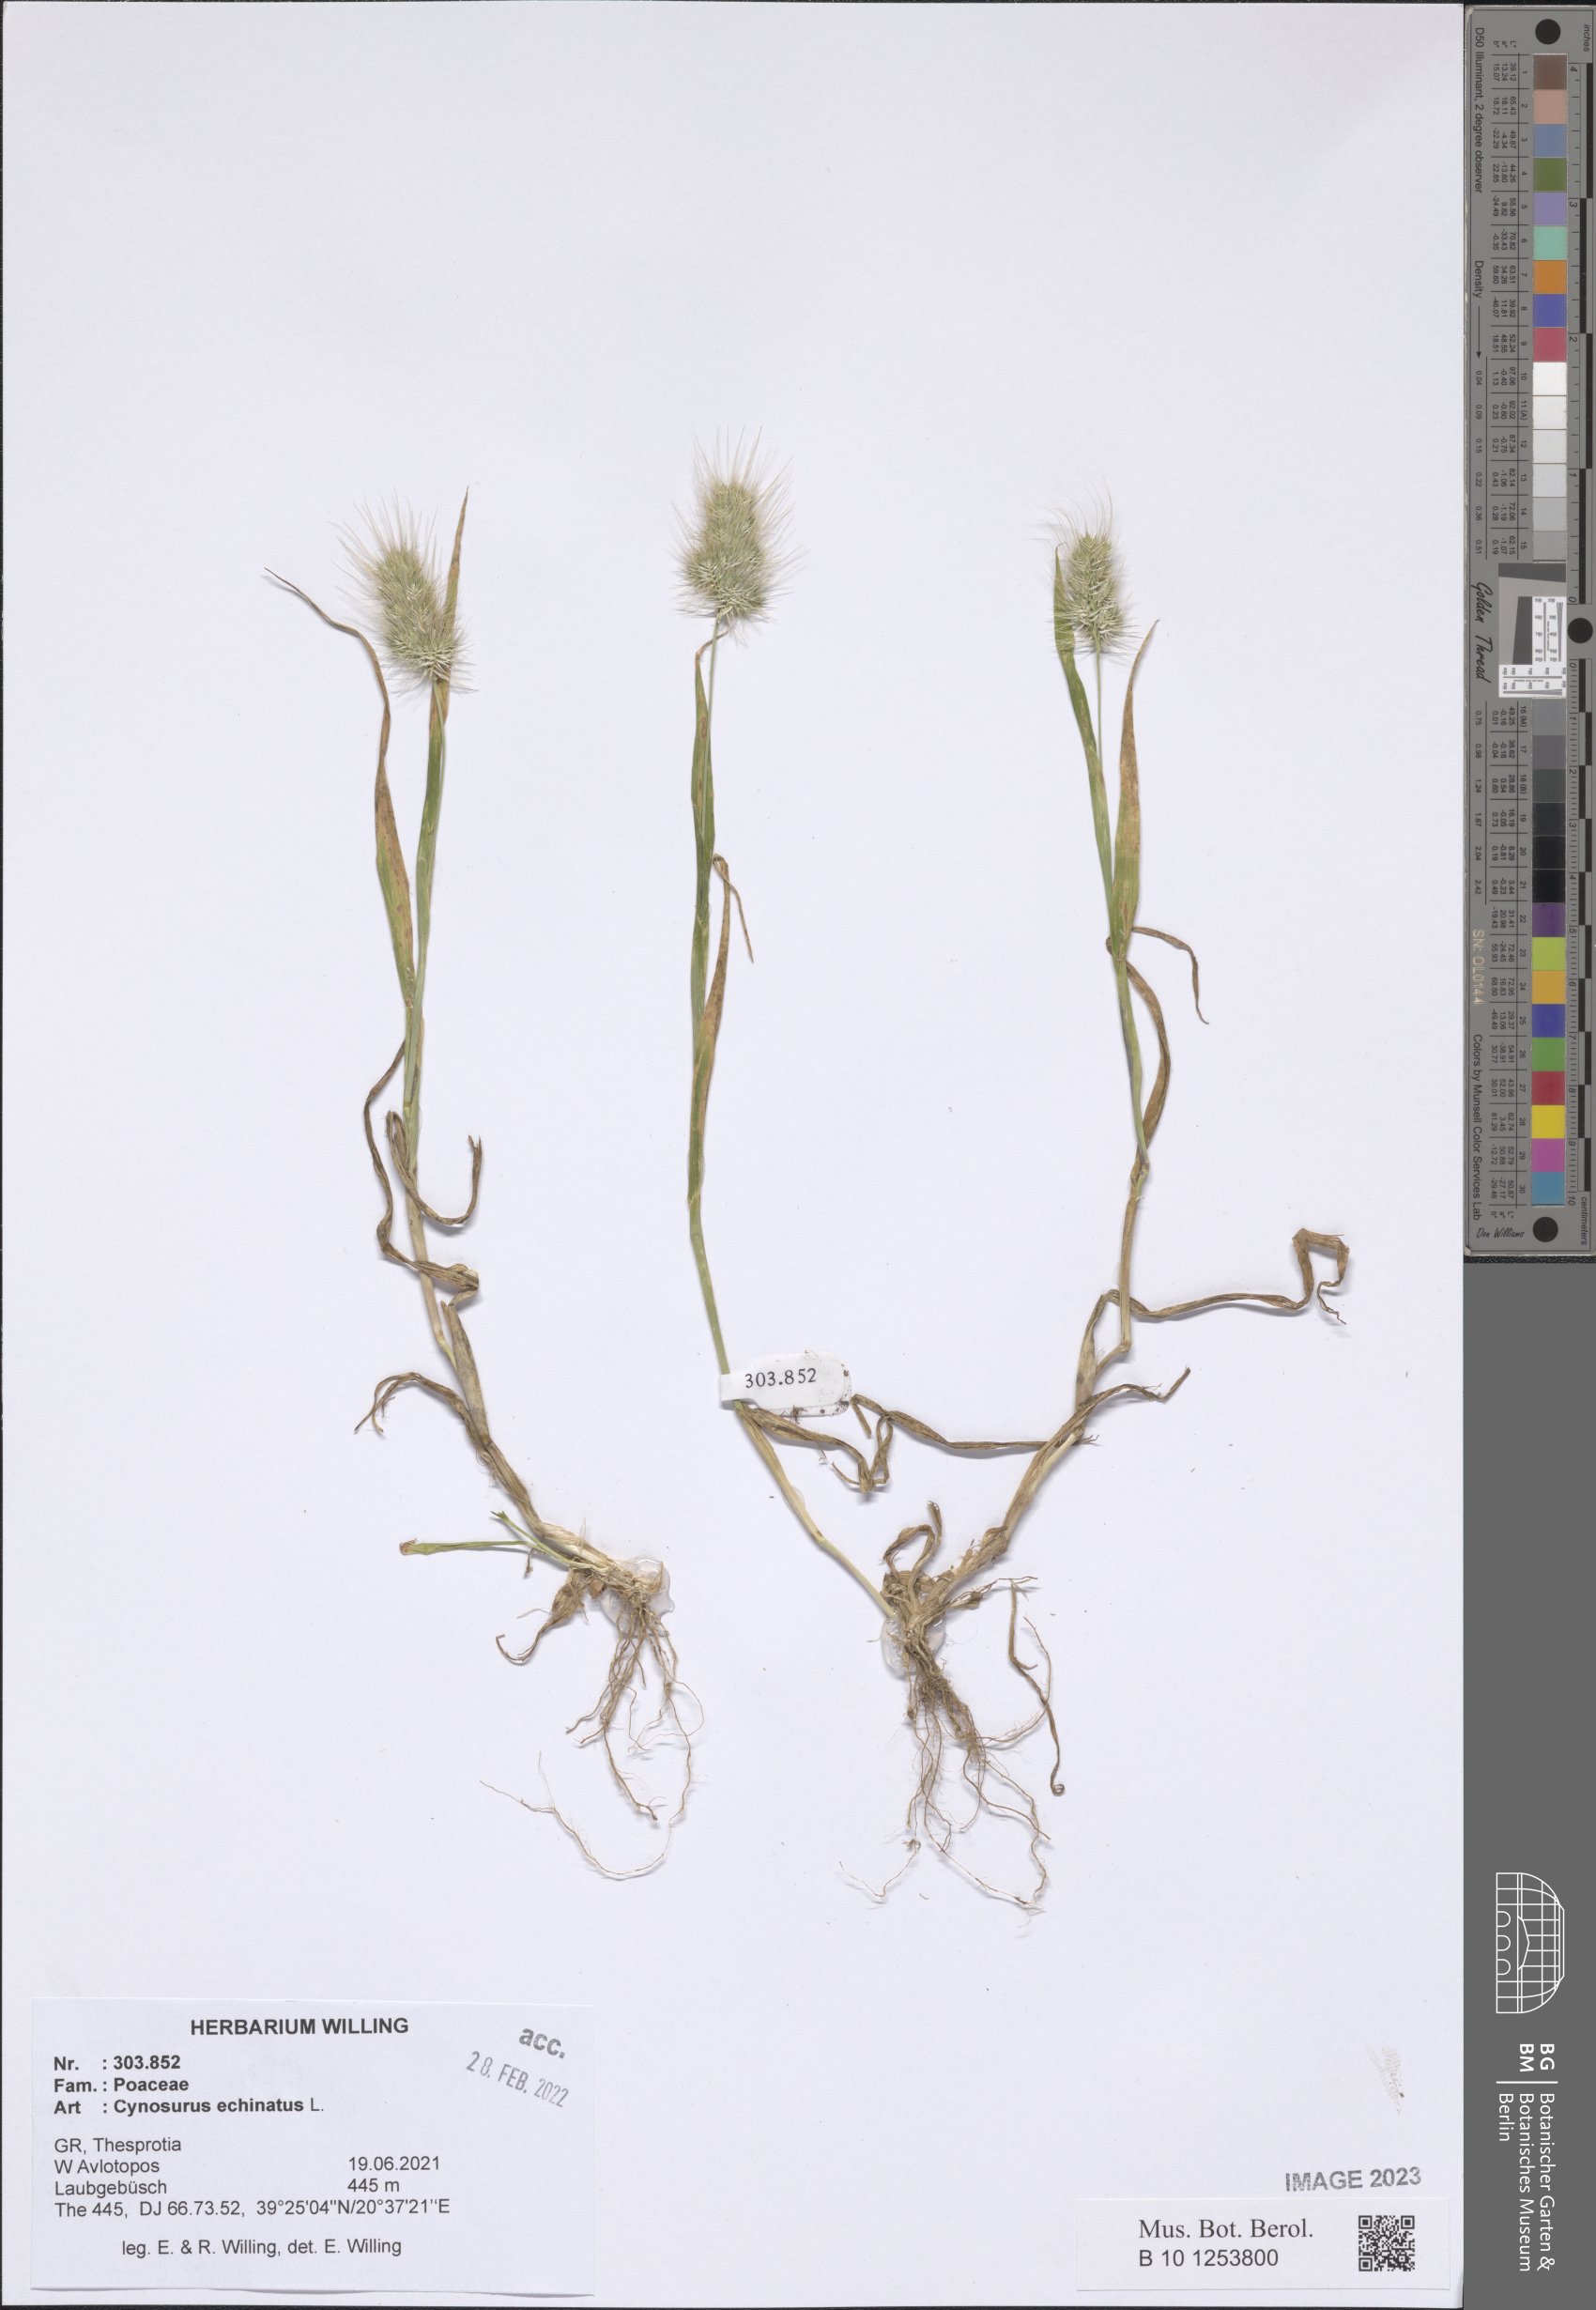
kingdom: Plantae
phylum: Tracheophyta
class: Liliopsida
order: Poales
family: Poaceae
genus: Cynosurus
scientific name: Cynosurus echinatus
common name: Rough dog's-tail
